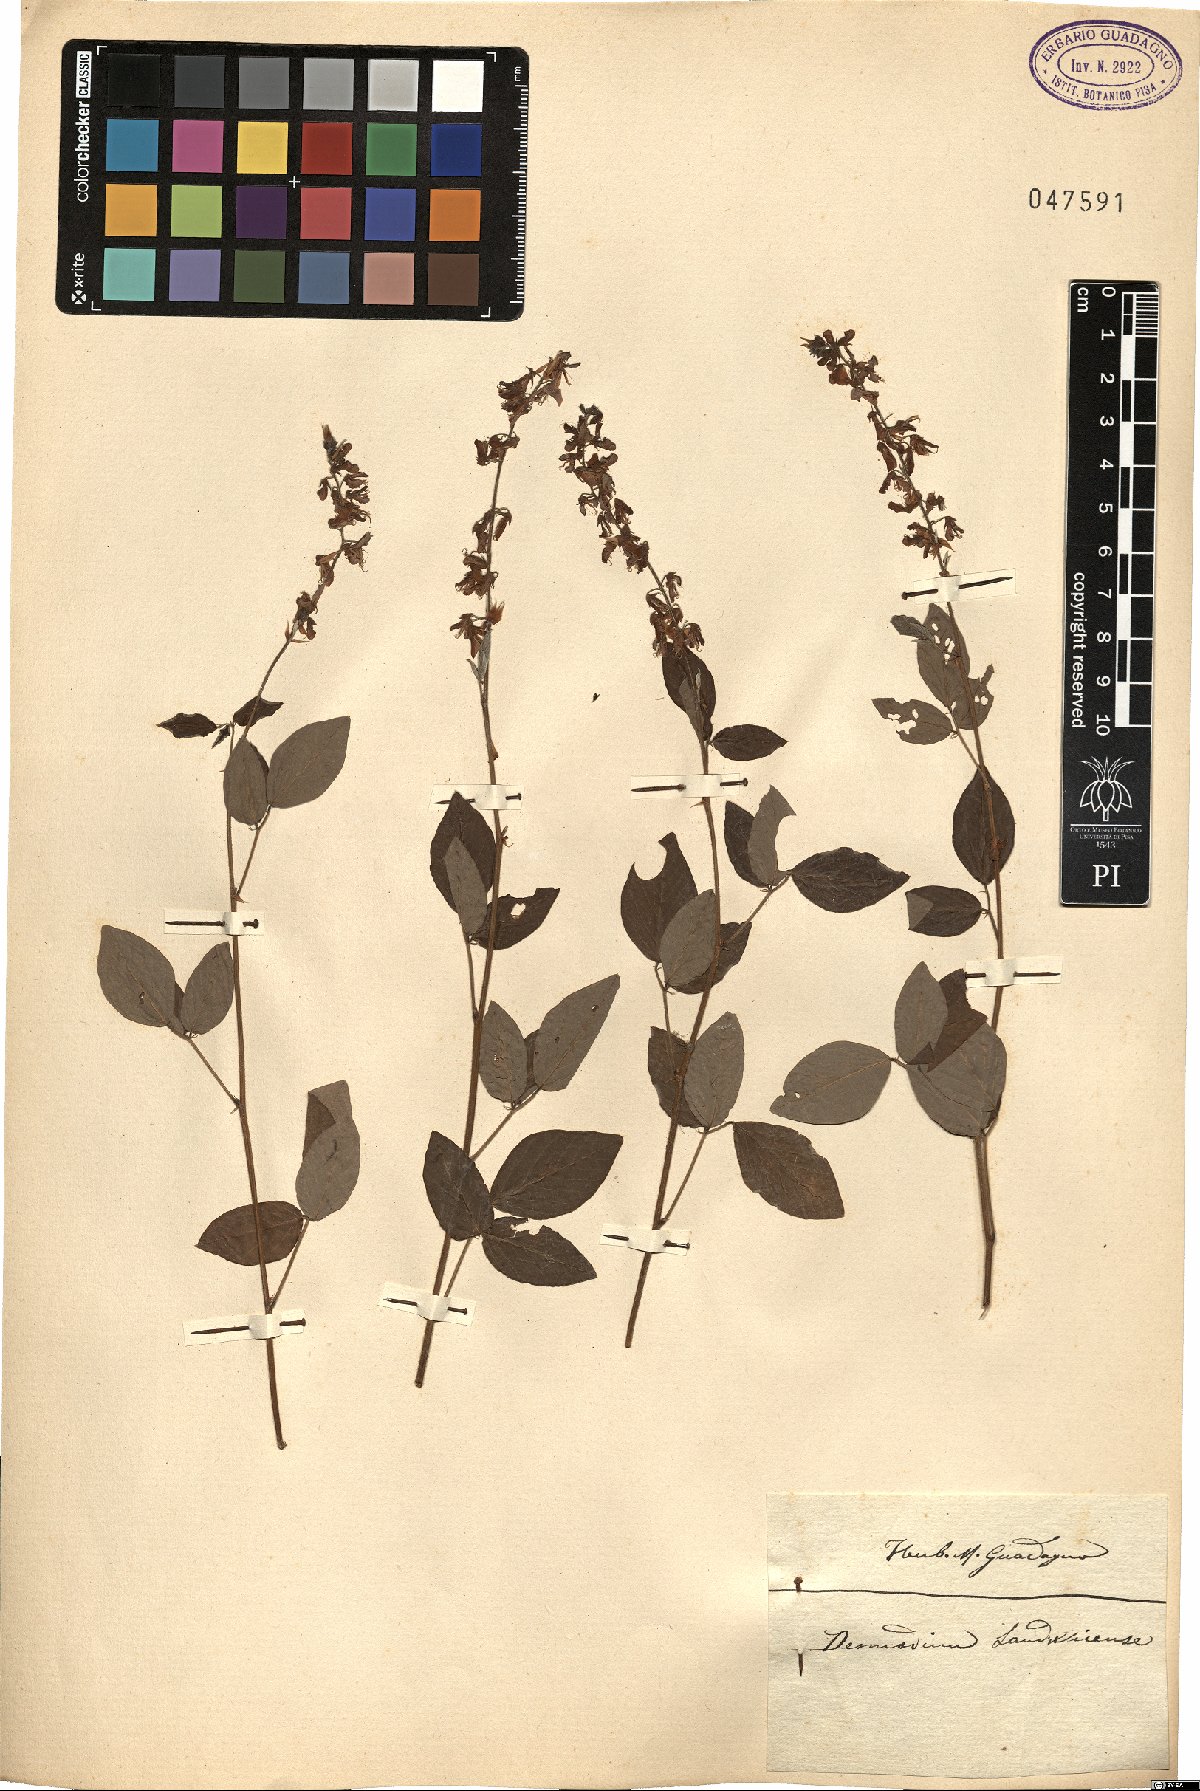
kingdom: Plantae
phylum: Tracheophyta
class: Magnoliopsida
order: Fabales
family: Fabaceae
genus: Desmodium
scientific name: Desmodium uncinatum
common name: Silverleaf desmodium
